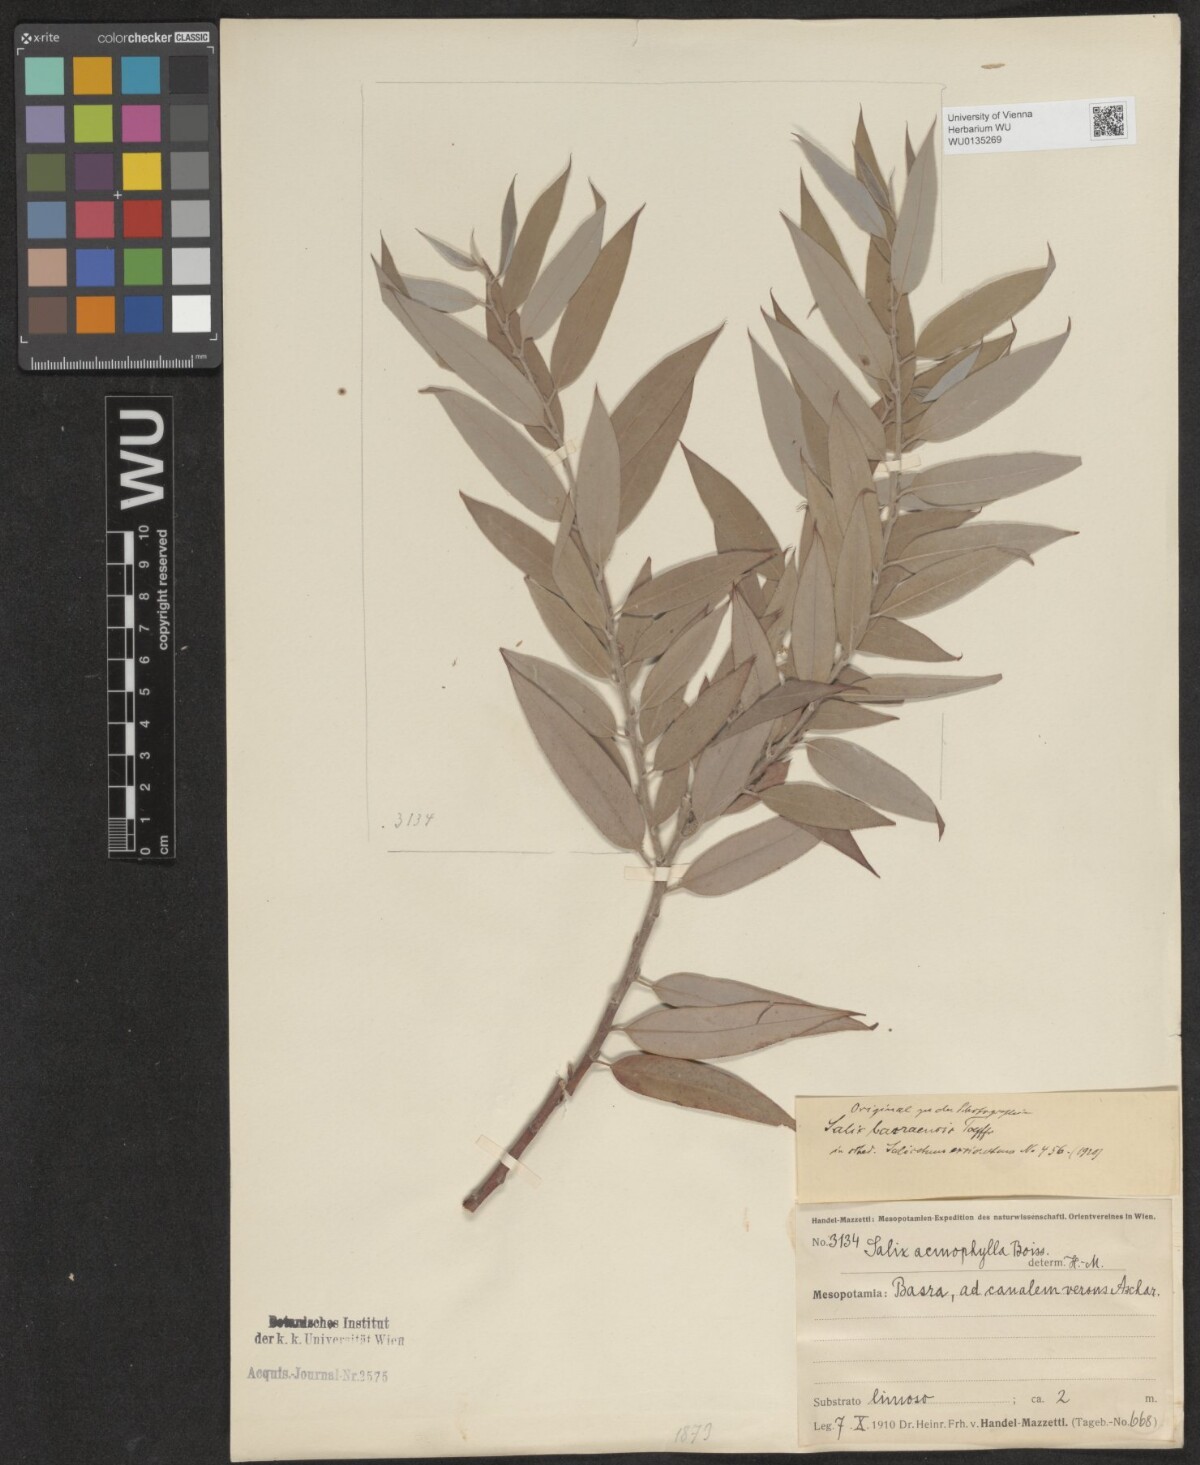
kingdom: Plantae
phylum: Tracheophyta
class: Magnoliopsida
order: Malpighiales
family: Salicaceae
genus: Salix
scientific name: Salix acmophylla
